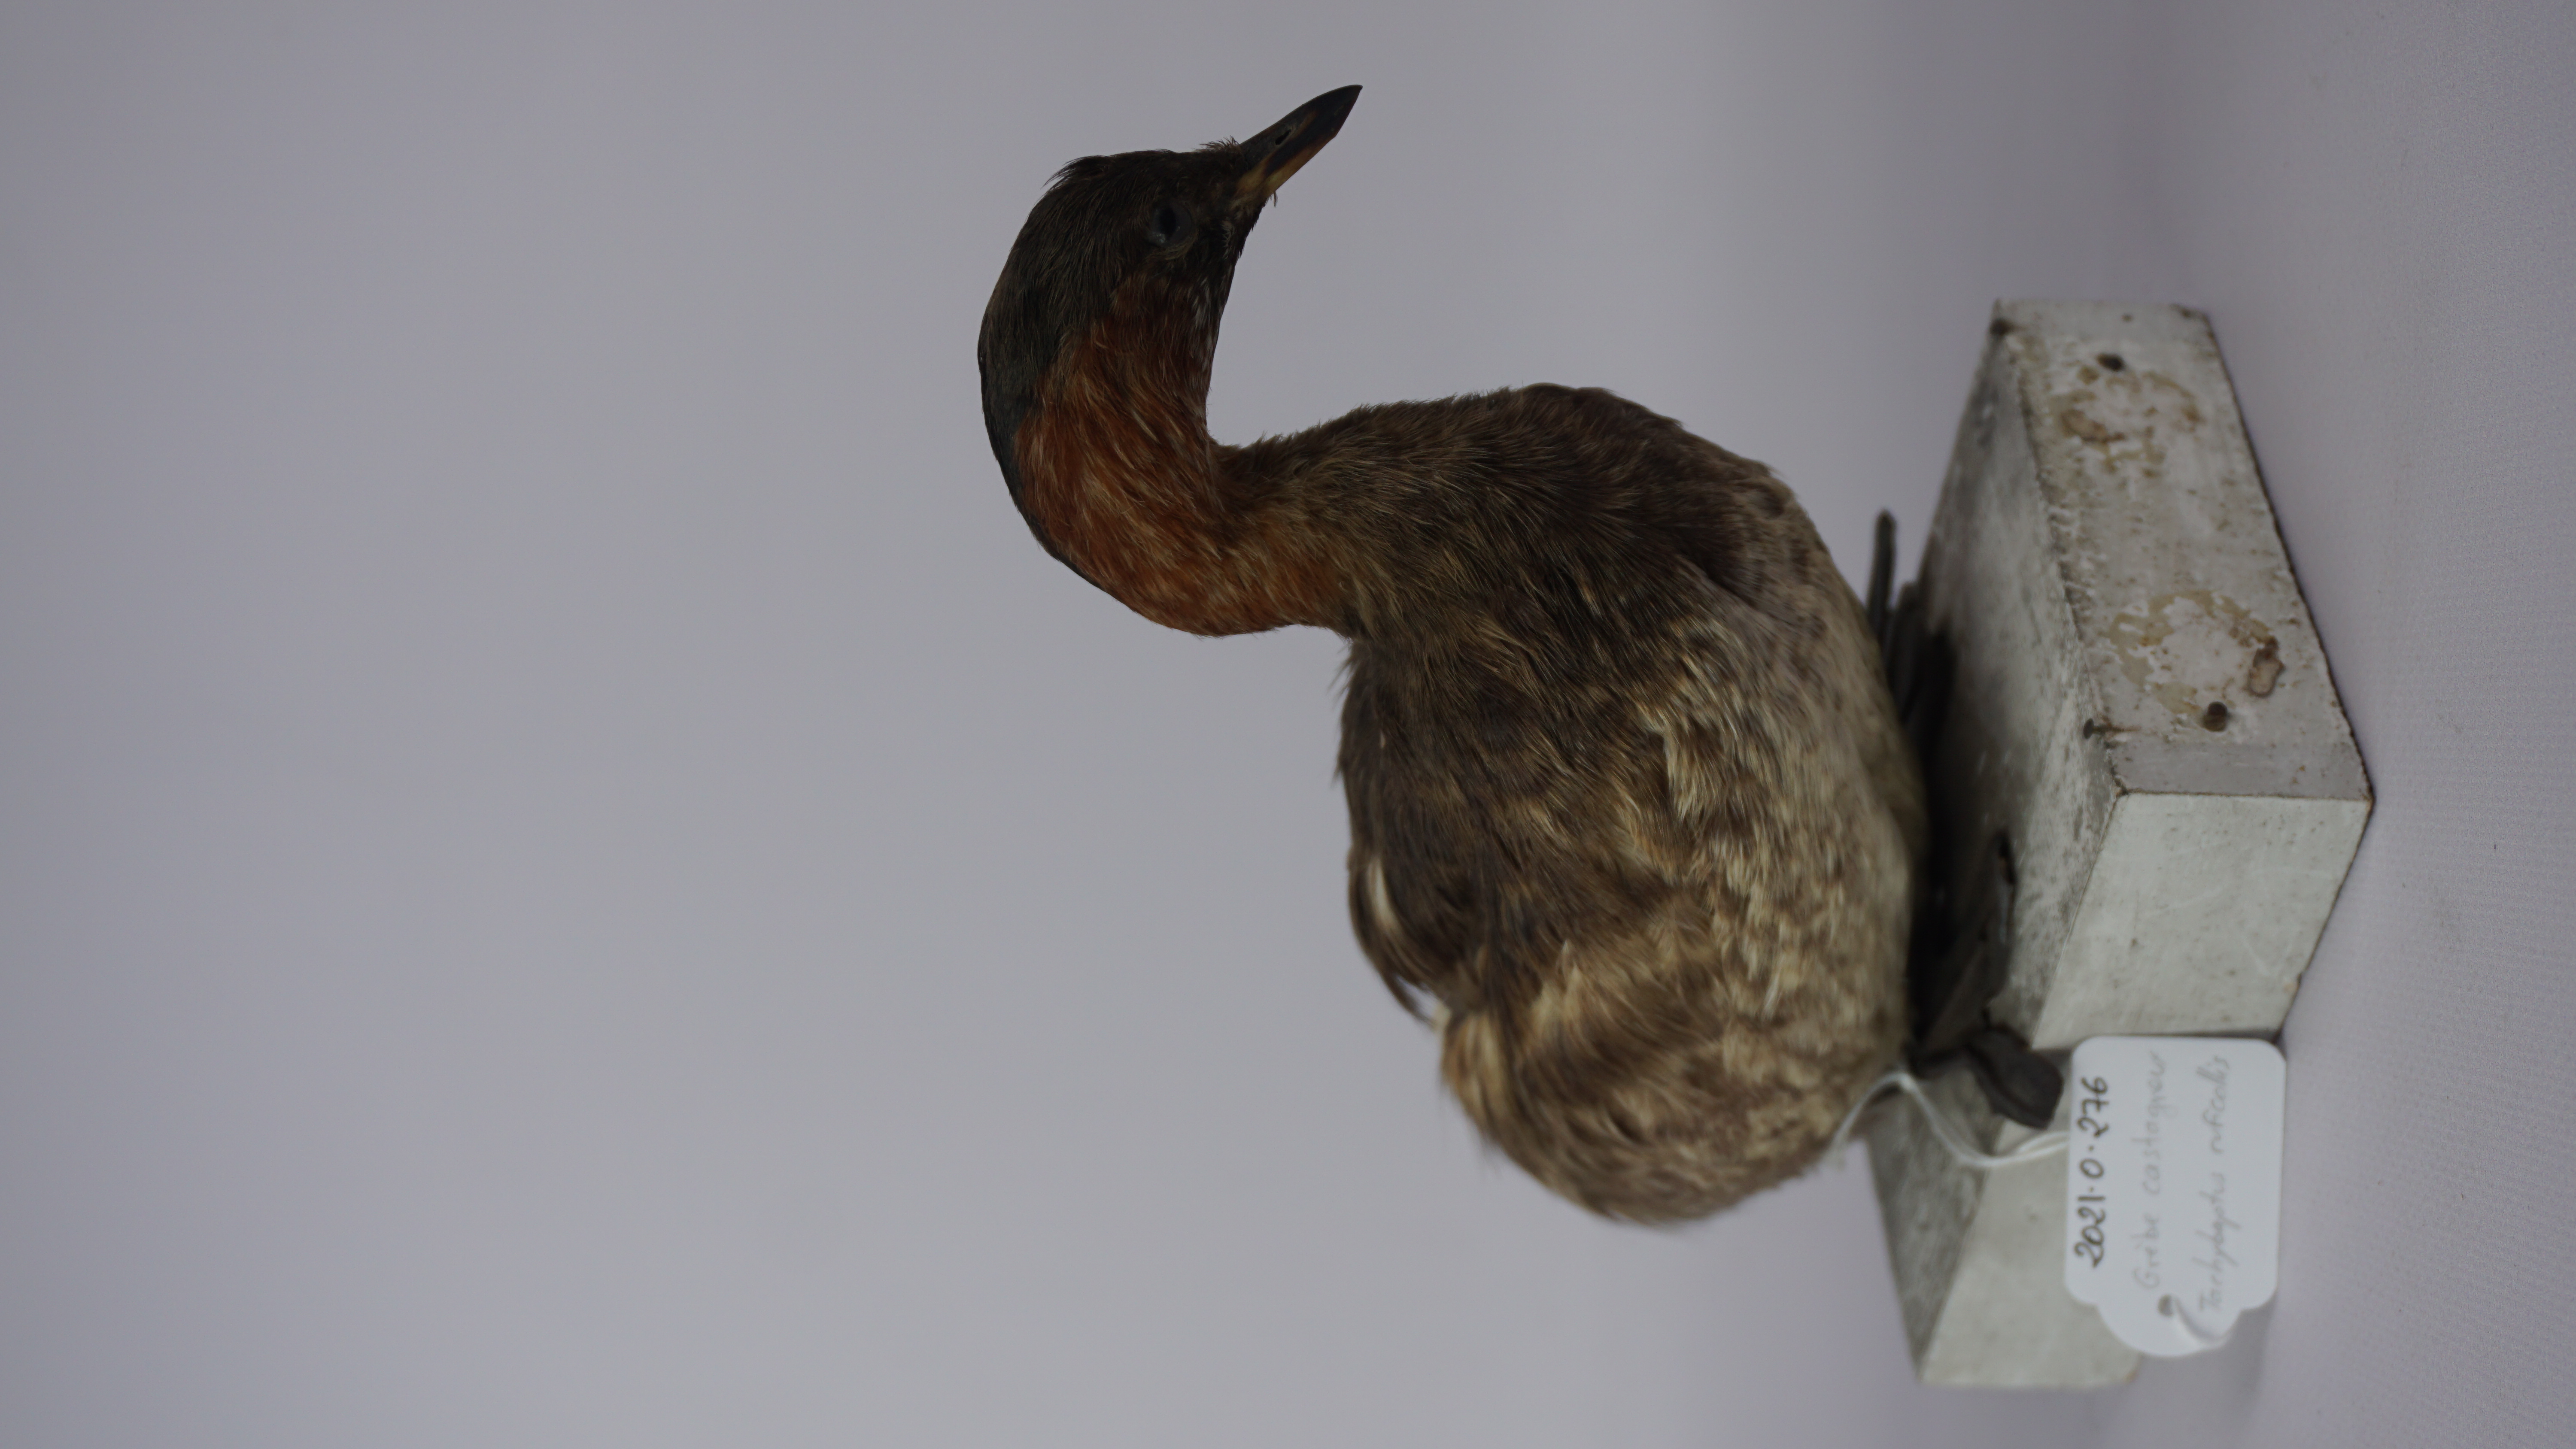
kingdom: Animalia
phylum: Chordata
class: Aves
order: Podicipediformes
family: Podicipedidae
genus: Tachybaptus
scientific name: Tachybaptus ruficollis
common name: Little grebe
